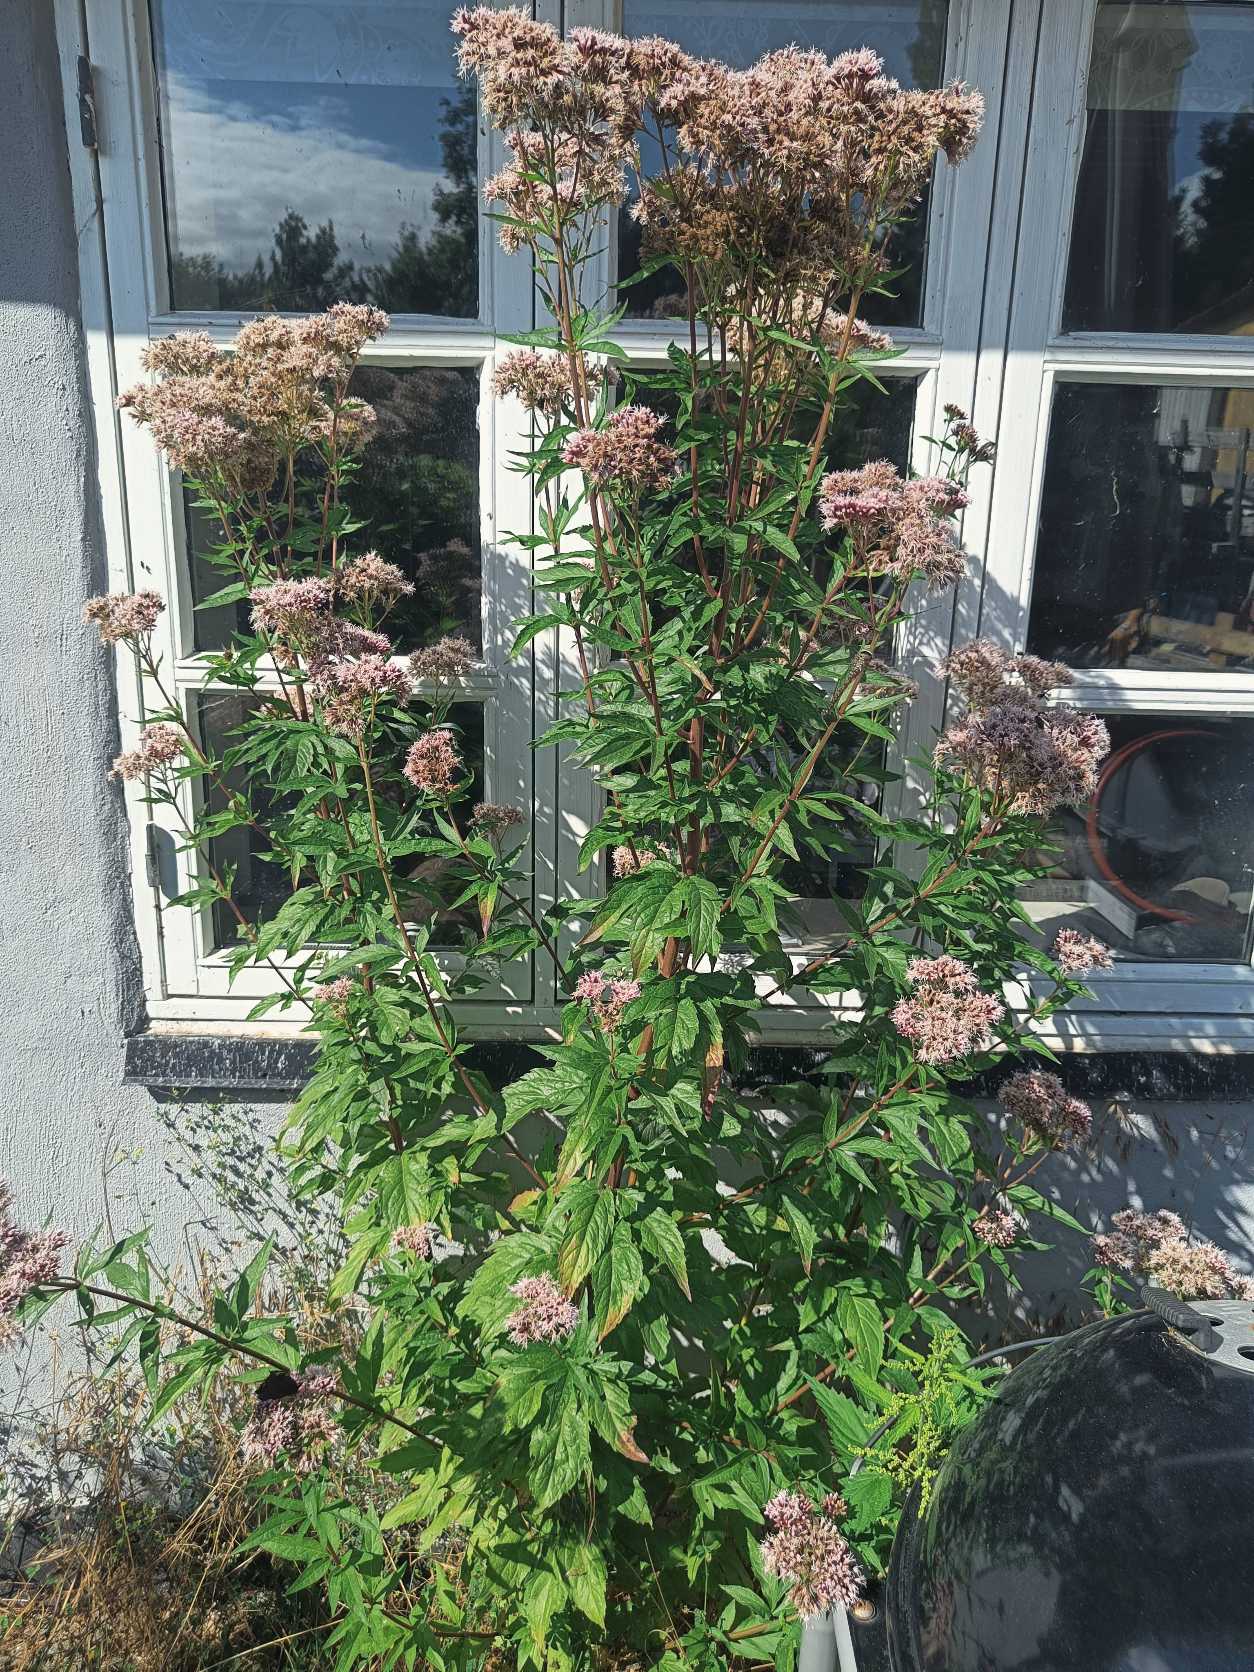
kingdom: Plantae
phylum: Tracheophyta
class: Magnoliopsida
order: Asterales
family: Asteraceae
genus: Eupatorium
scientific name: Eupatorium cannabinum
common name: Hjortetrøst
